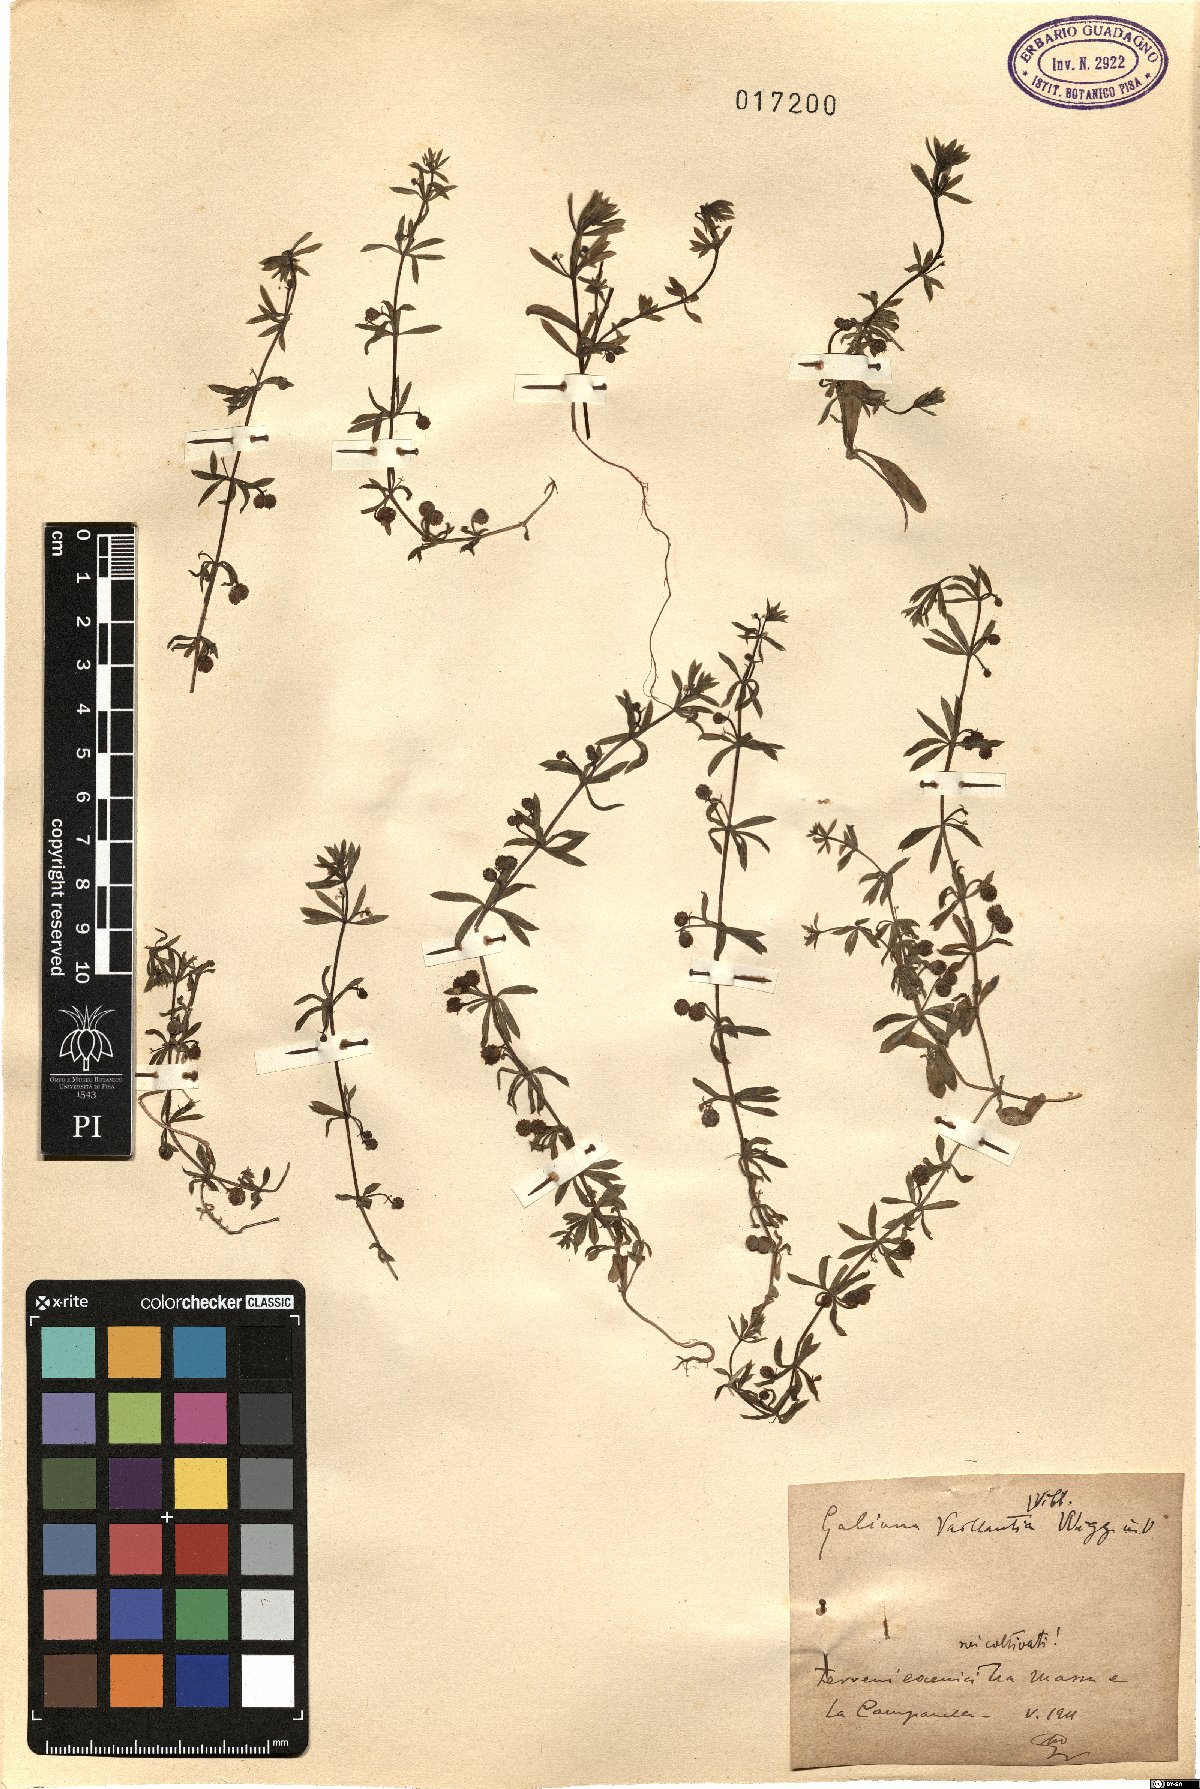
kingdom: Plantae
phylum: Tracheophyta
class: Magnoliopsida
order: Gentianales
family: Rubiaceae
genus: Galium
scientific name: Galium verrucosum
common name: Warty bedstraw
